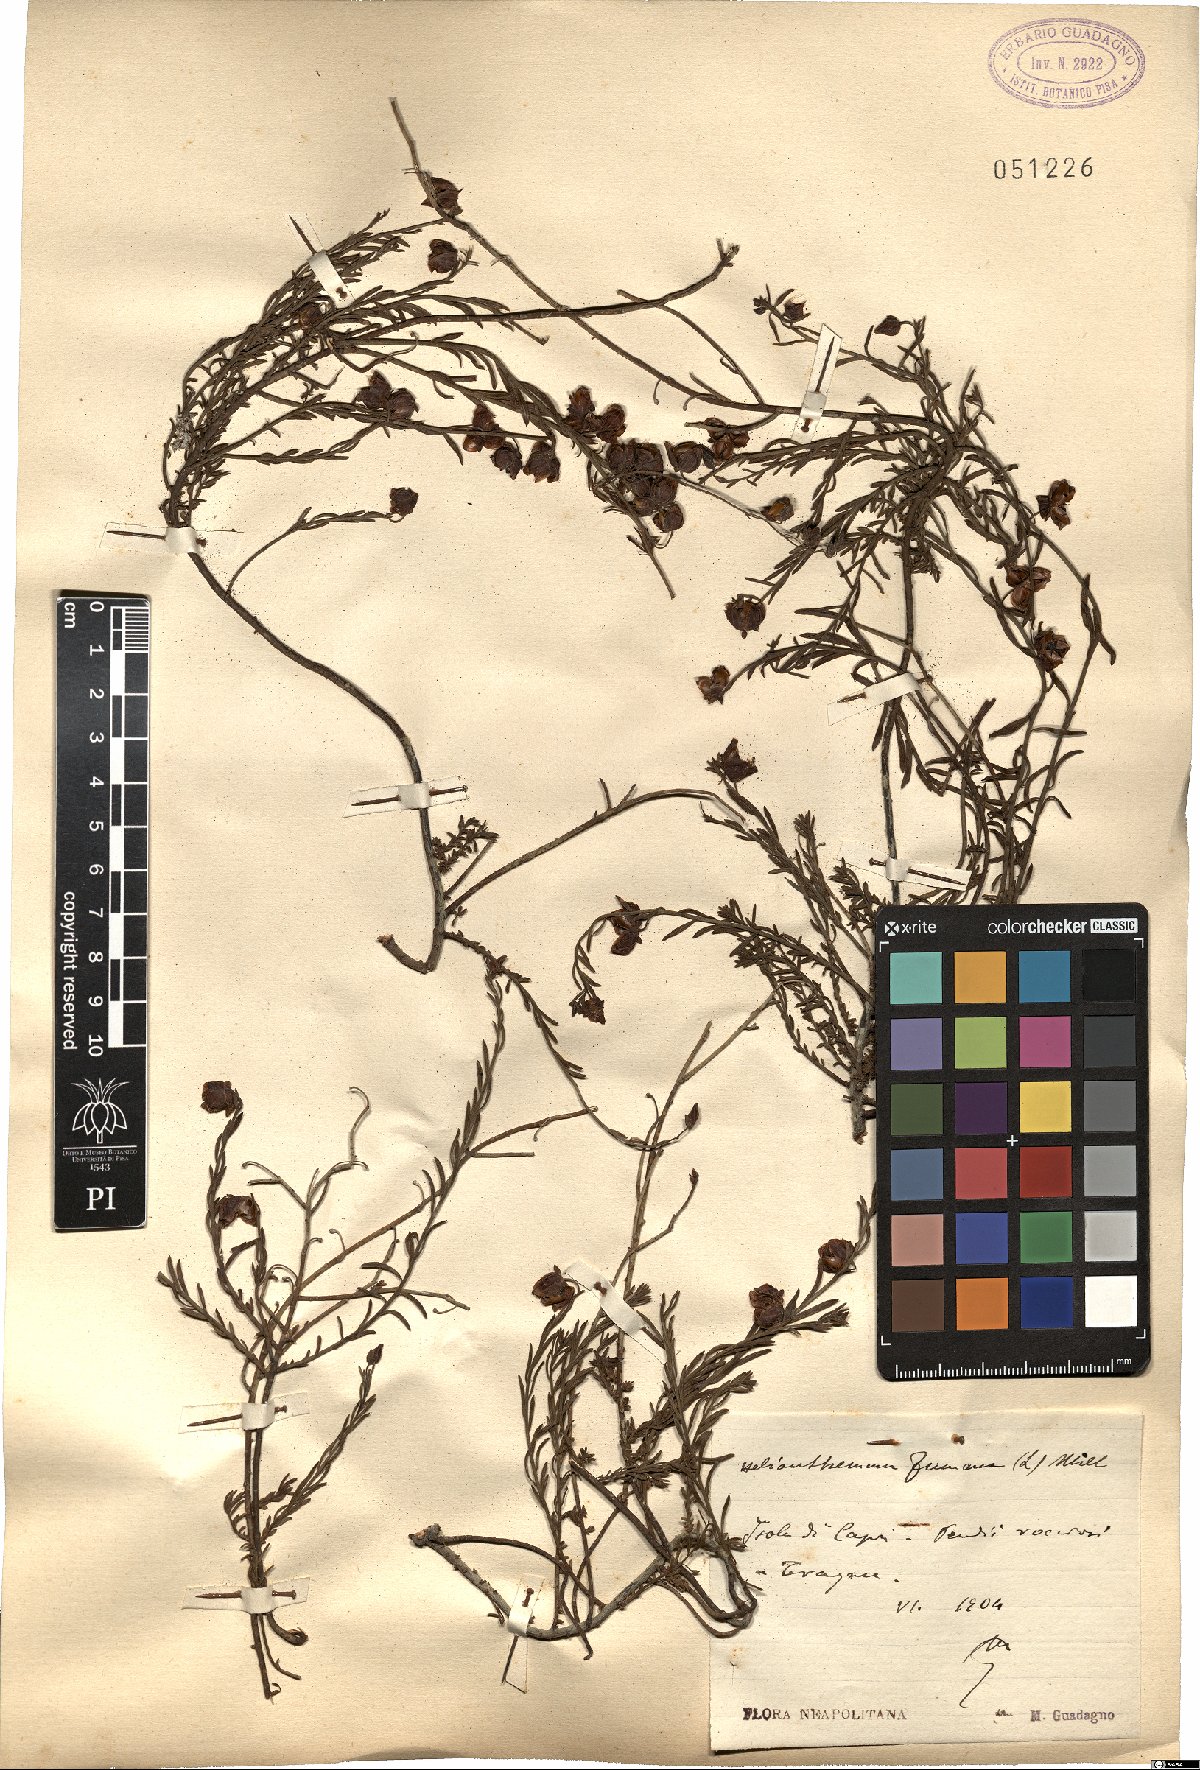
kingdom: Plantae
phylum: Tracheophyta
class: Magnoliopsida
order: Malvales
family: Cistaceae
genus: Fumana
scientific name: Fumana procumbens
